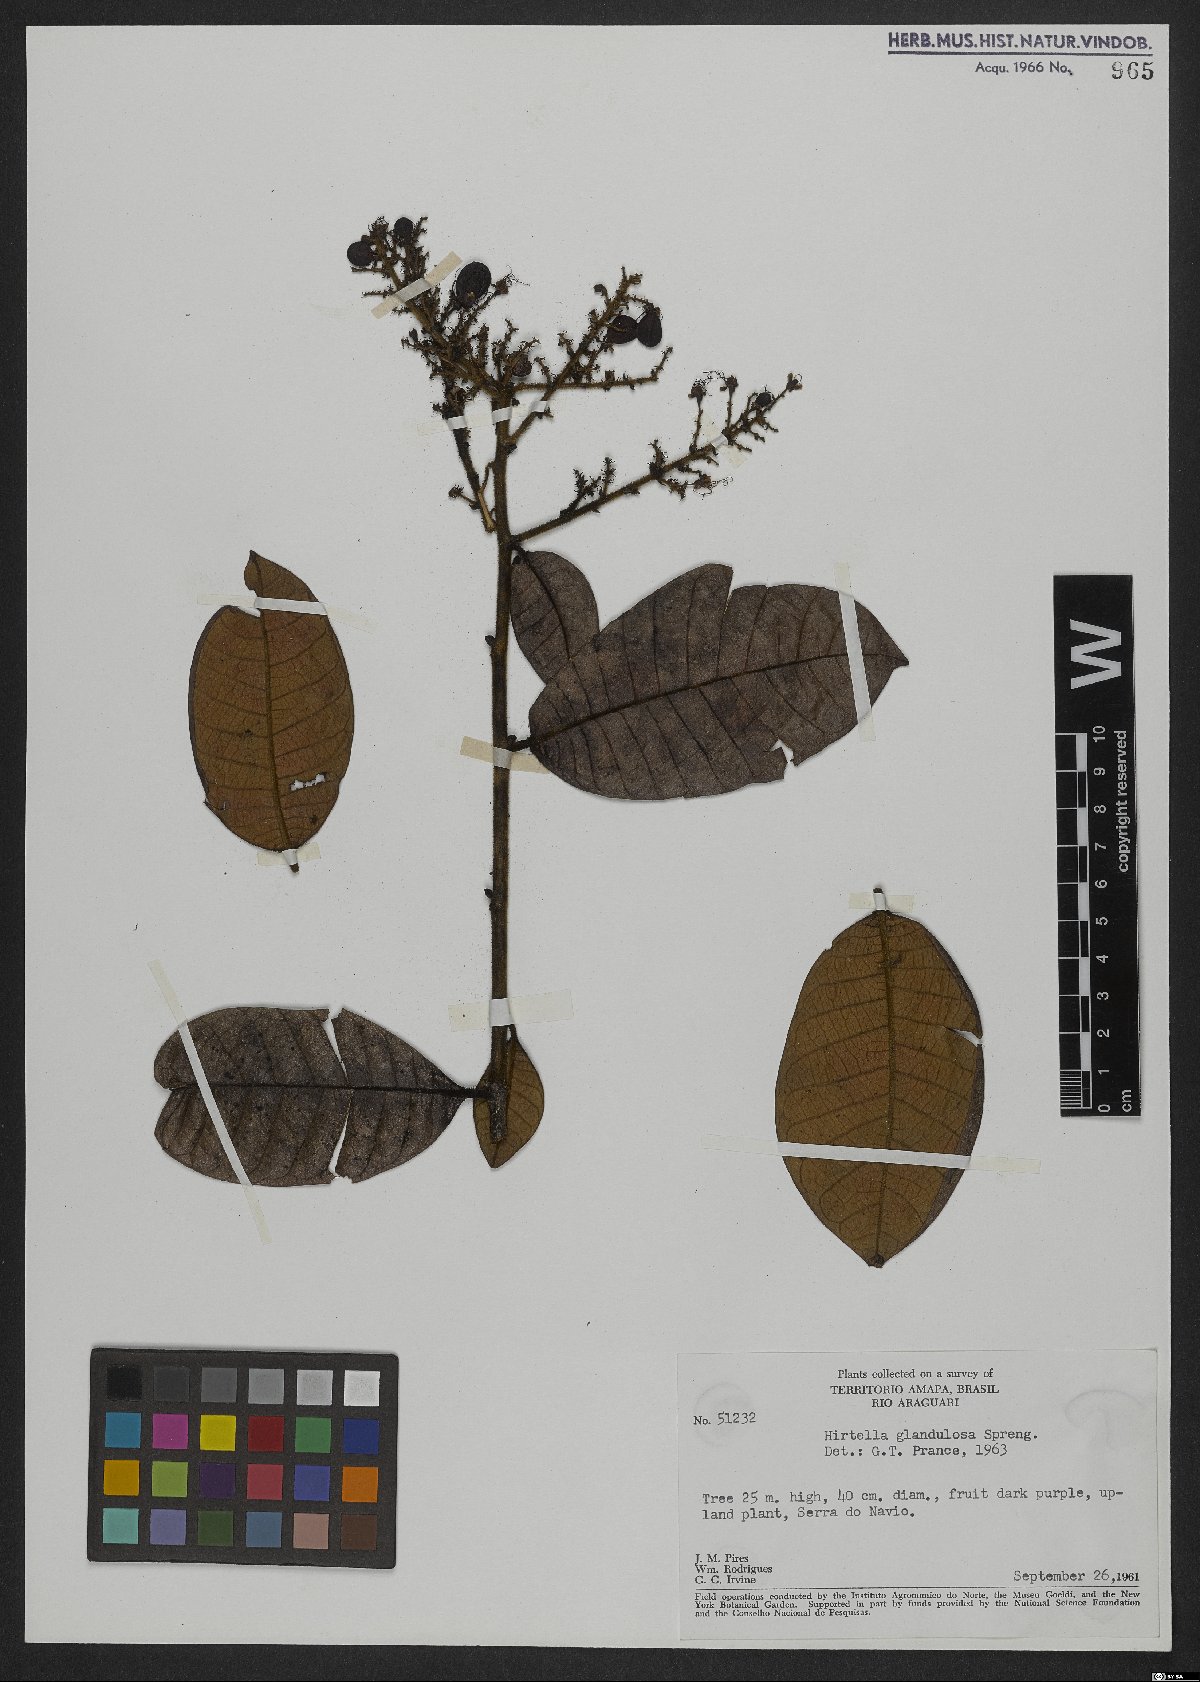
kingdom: Plantae
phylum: Tracheophyta
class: Magnoliopsida
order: Malpighiales
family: Chrysobalanaceae
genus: Hirtella
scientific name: Hirtella glandulosa
